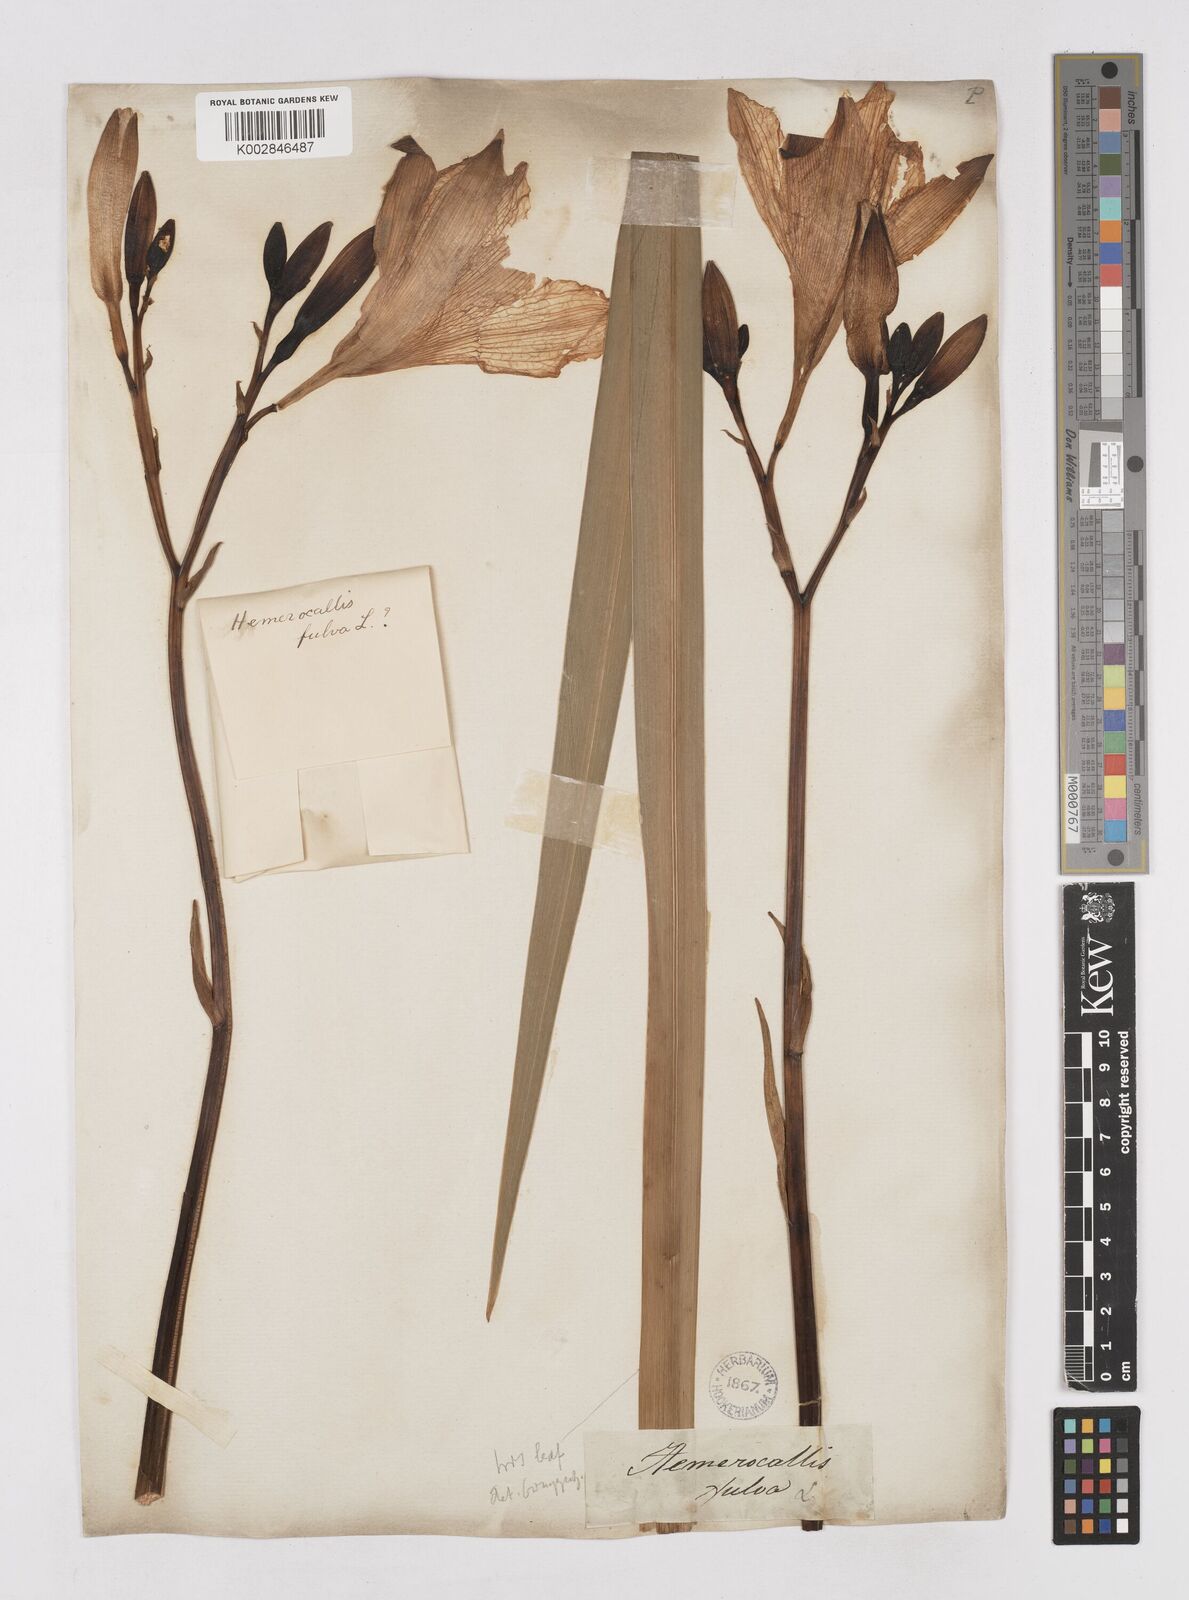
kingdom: Plantae
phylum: Tracheophyta
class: Liliopsida
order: Asparagales
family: Asphodelaceae
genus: Hemerocallis
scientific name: Hemerocallis lilioasphodelus
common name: Yellow day-lily
